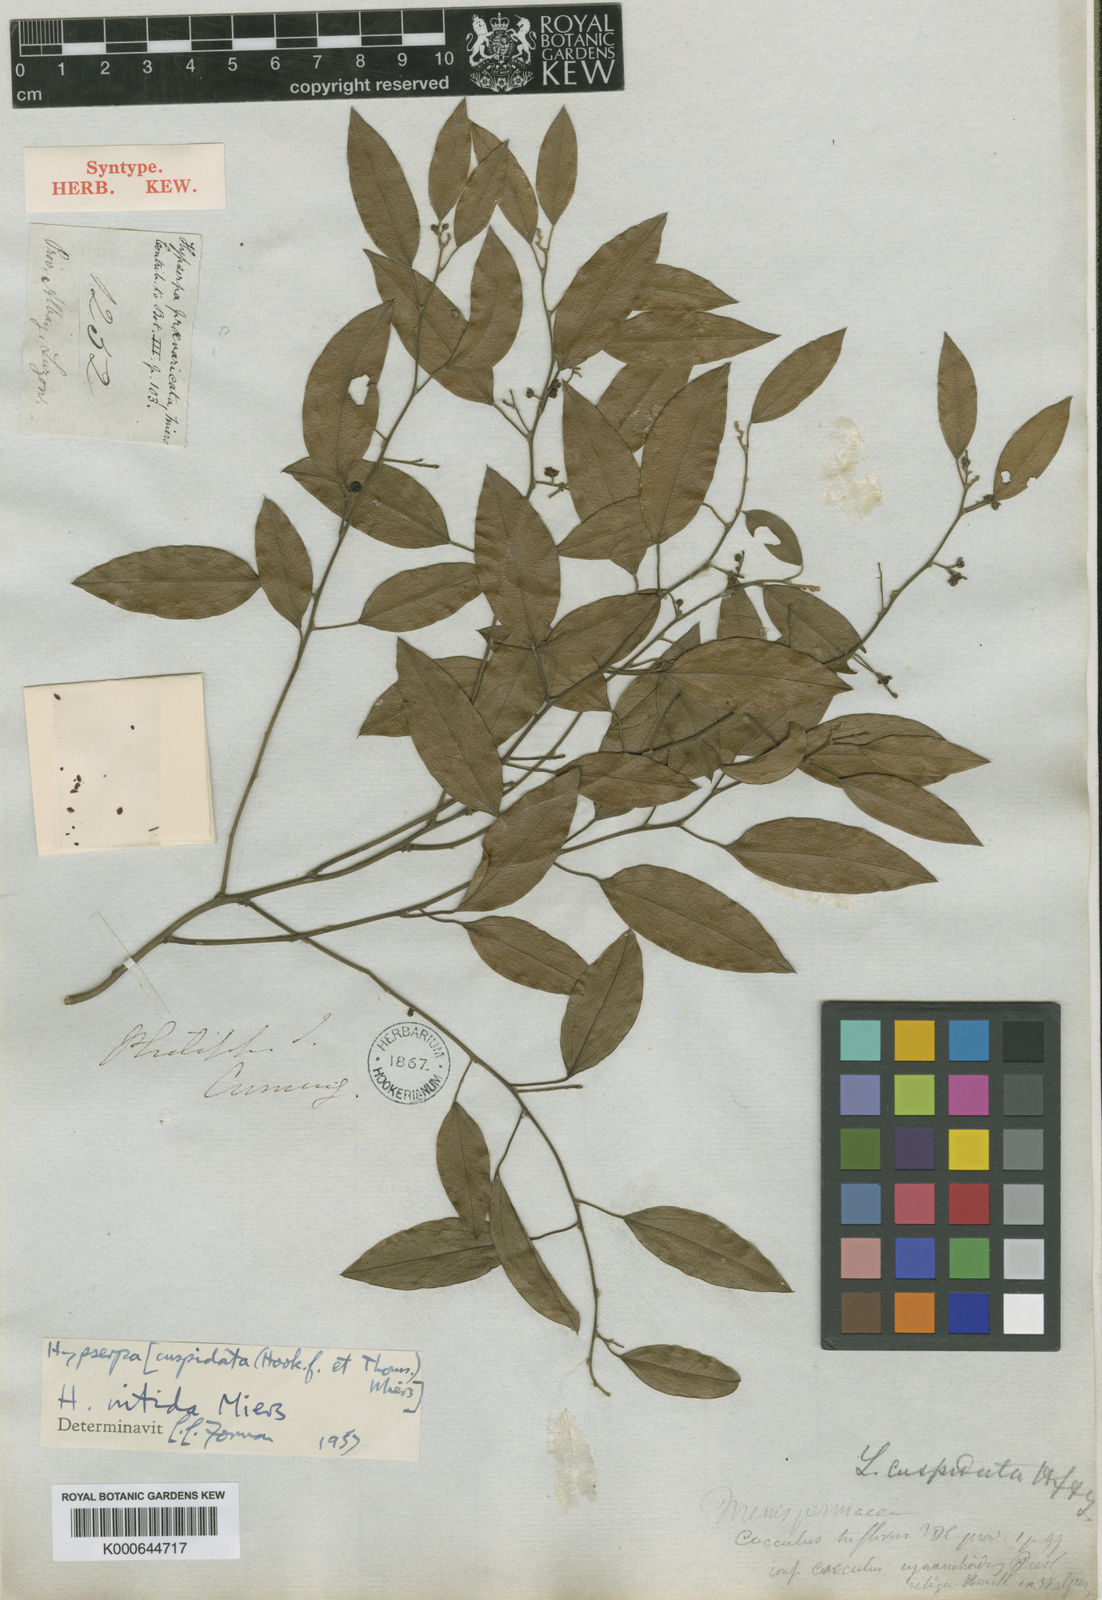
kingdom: Plantae
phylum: Tracheophyta
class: Magnoliopsida
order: Ranunculales
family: Menispermaceae
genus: Hypserpa
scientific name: Hypserpa
